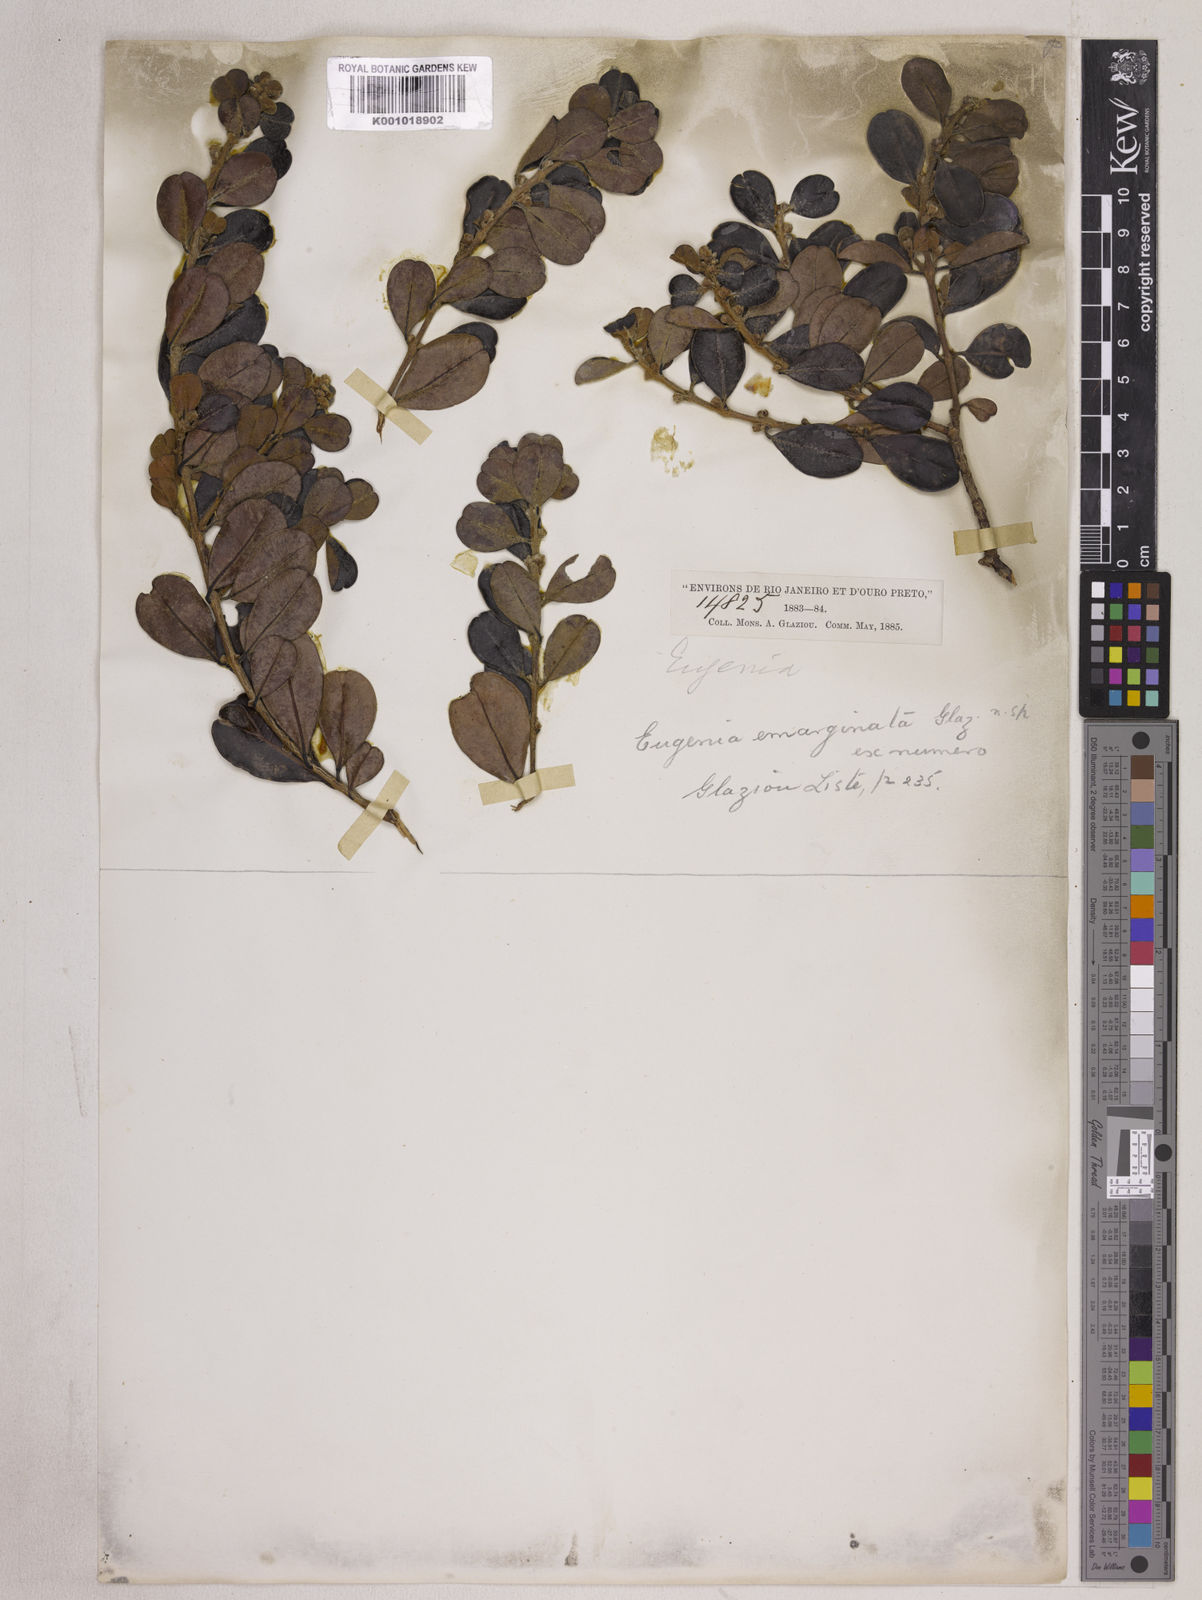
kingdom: Plantae
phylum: Tracheophyta
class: Magnoliopsida
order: Myrtales
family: Myrtaceae
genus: Eugenia
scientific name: Eugenia emarginata
